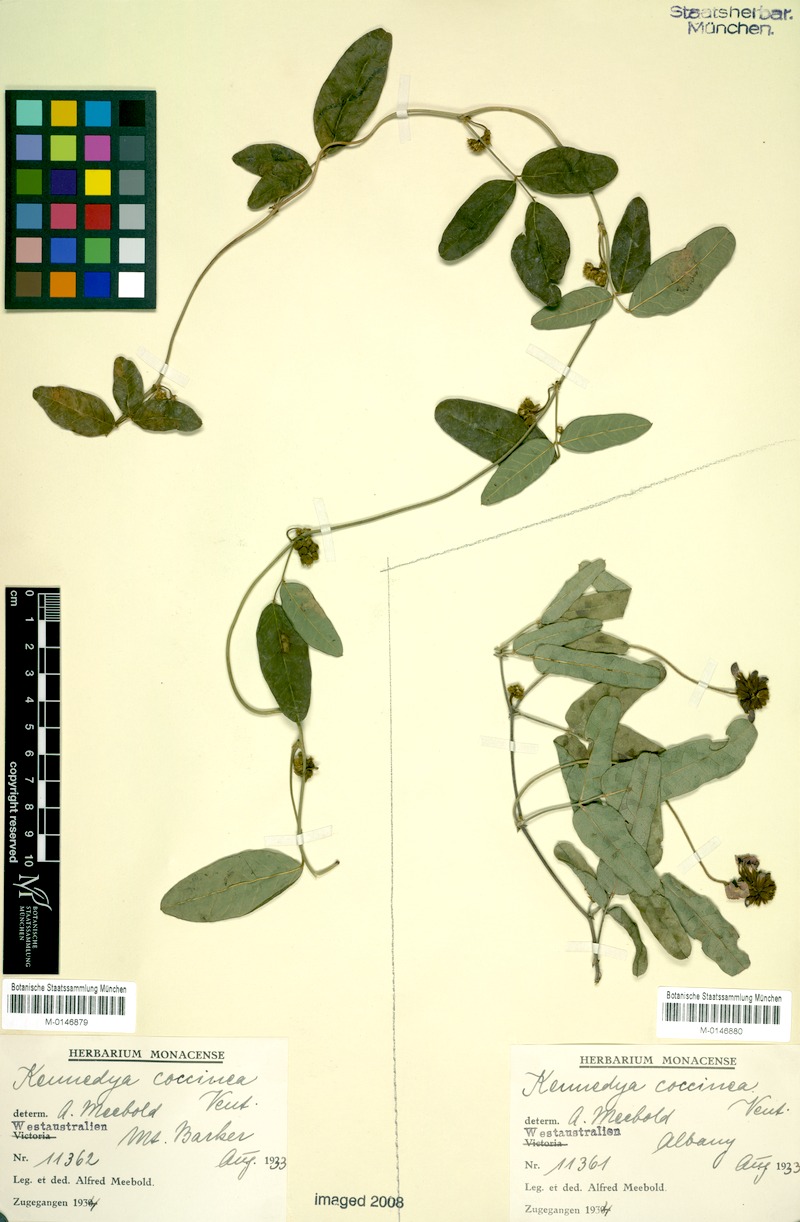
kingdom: Plantae
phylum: Tracheophyta
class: Magnoliopsida
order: Fabales
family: Fabaceae
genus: Kennedia
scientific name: Kennedia coccinea
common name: Coralvine
